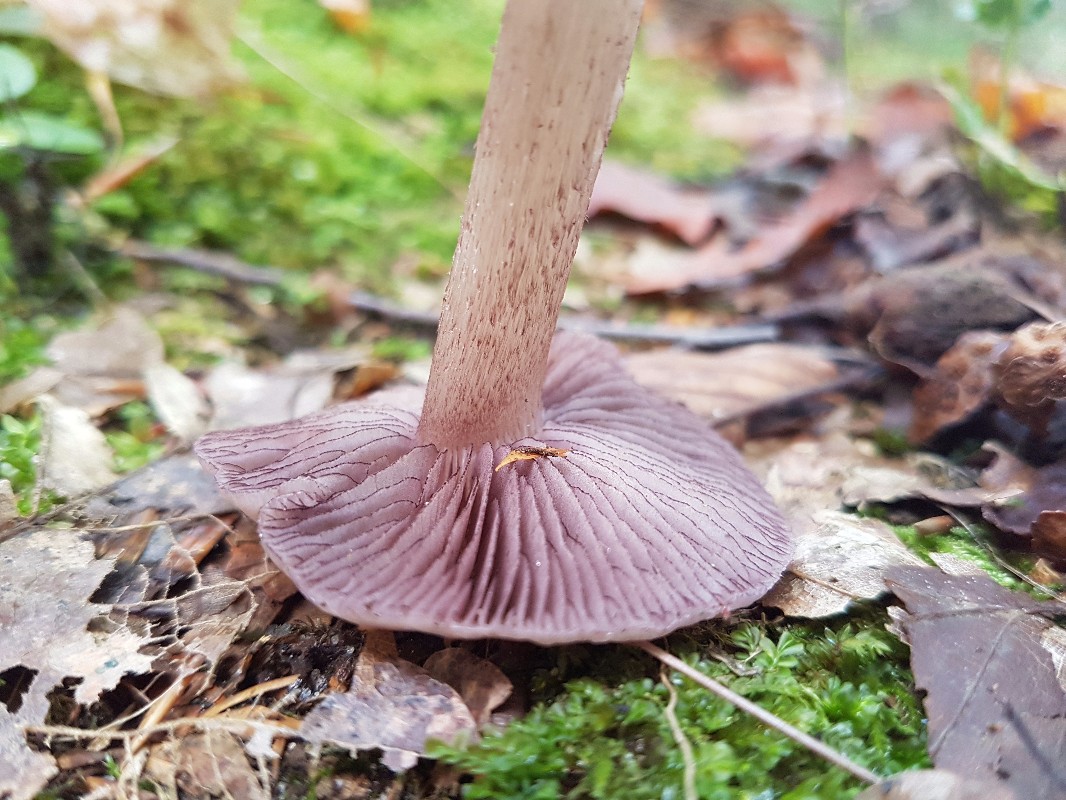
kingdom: Fungi
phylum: Basidiomycota
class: Agaricomycetes
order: Agaricales
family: Mycenaceae
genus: Mycena
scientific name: Mycena pelianthina
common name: mørkbladet huesvamp
